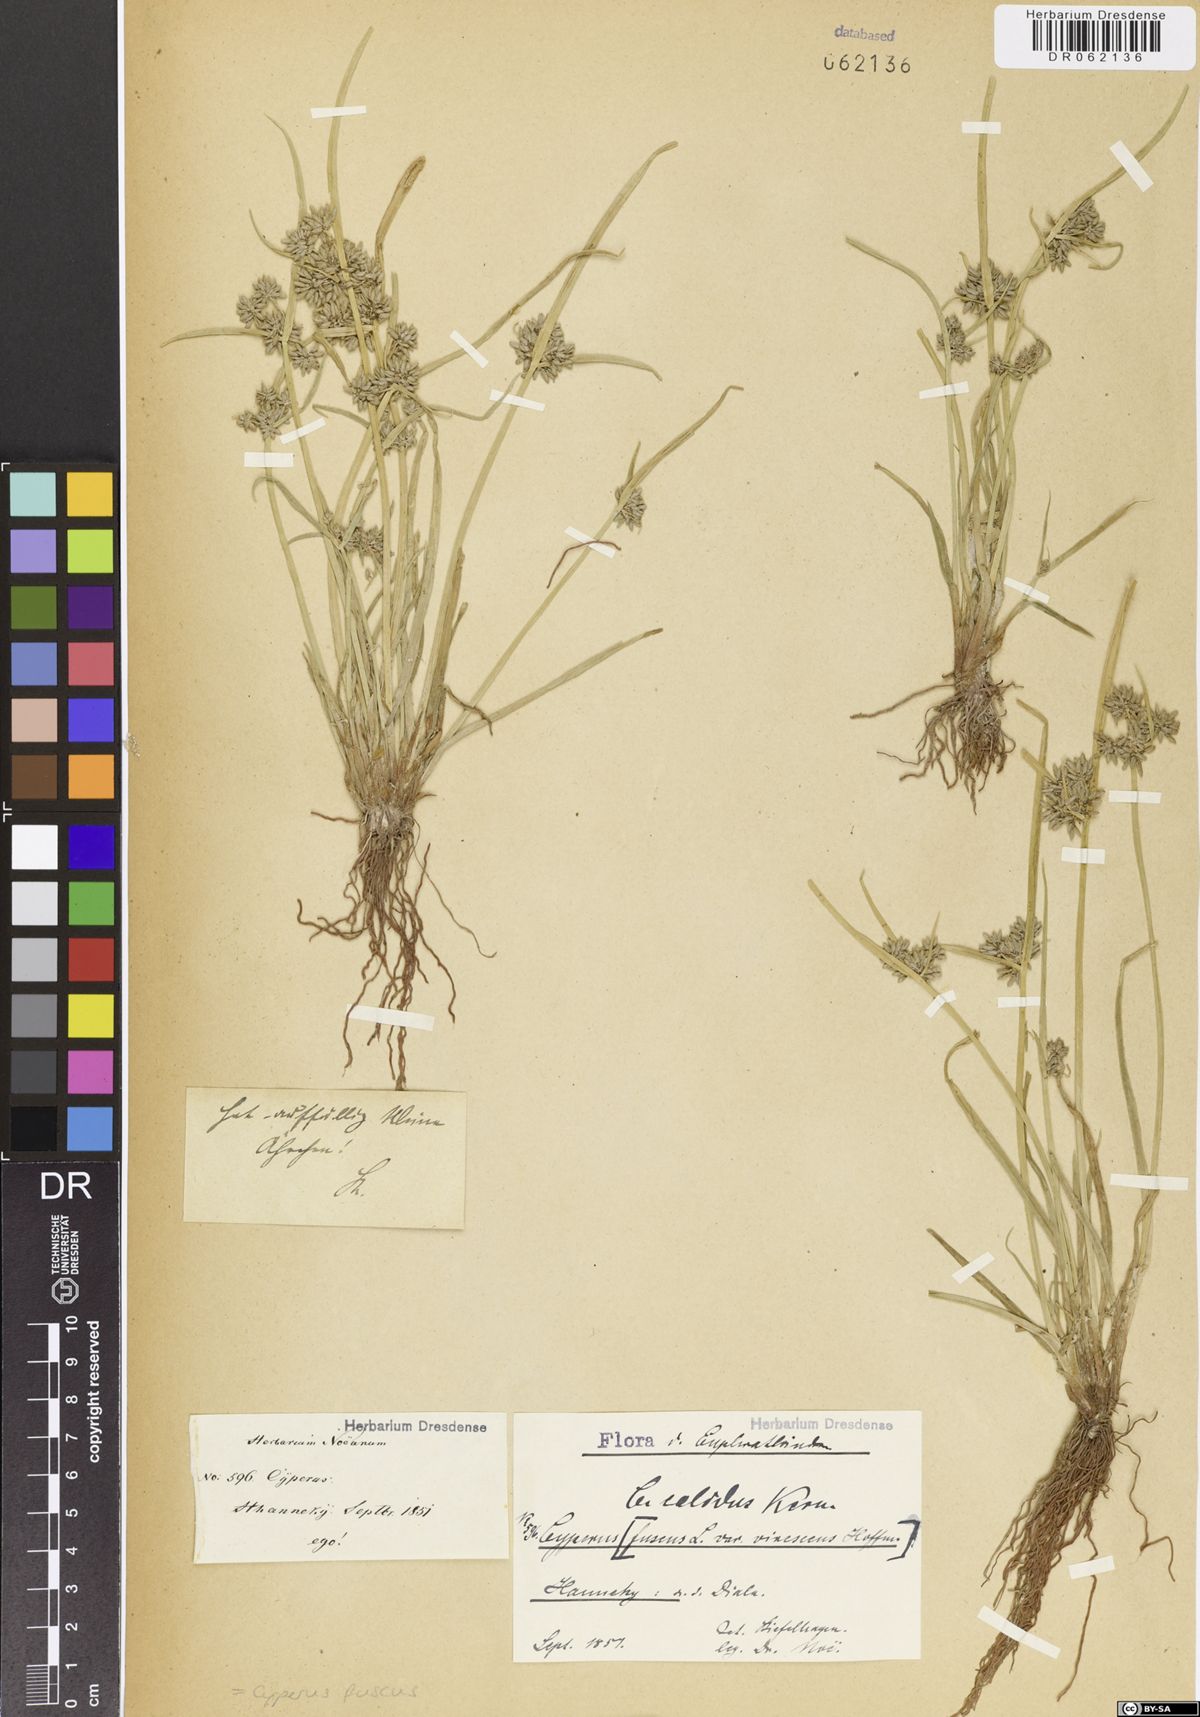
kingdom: Plantae
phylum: Tracheophyta
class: Liliopsida
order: Poales
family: Cyperaceae
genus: Cyperus
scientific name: Cyperus fuscus
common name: Brown galingale
